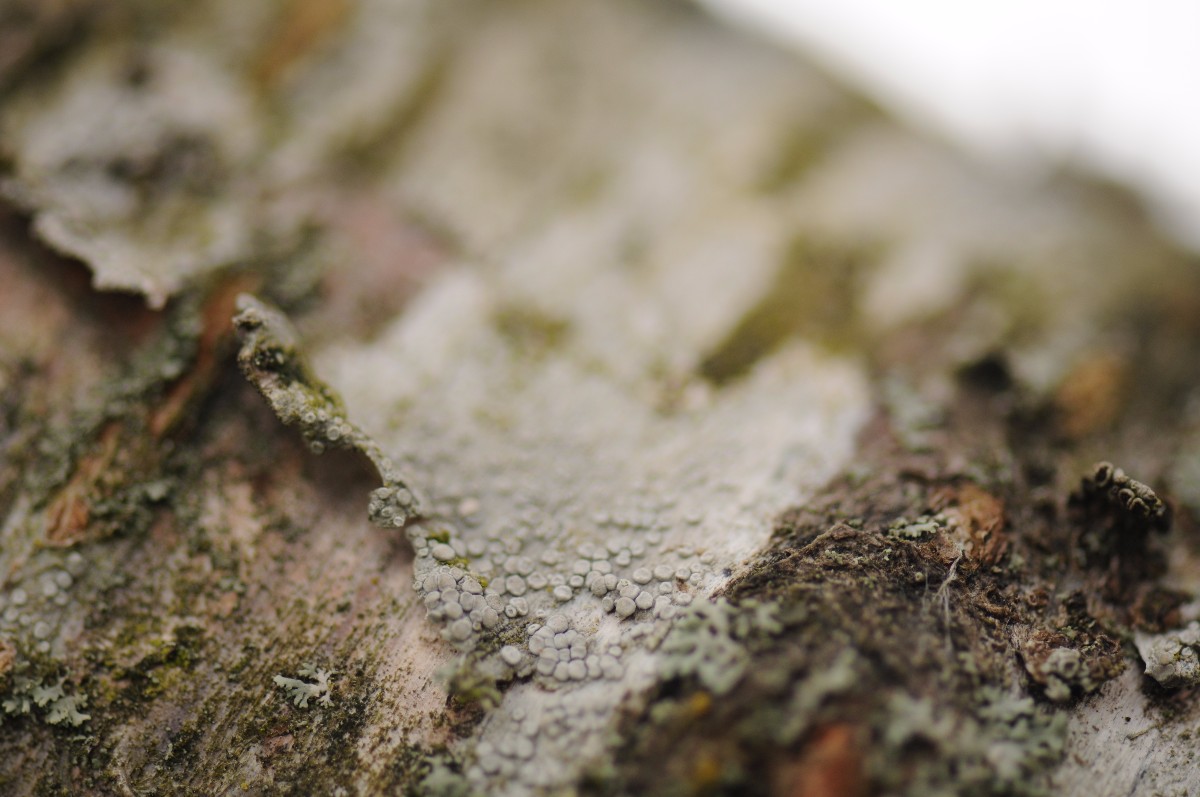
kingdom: Fungi
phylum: Ascomycota
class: Lecanoromycetes
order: Lecanorales
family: Lecanoraceae
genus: Glaucomaria
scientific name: Glaucomaria carpinea
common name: hviddugget kantskivelav
